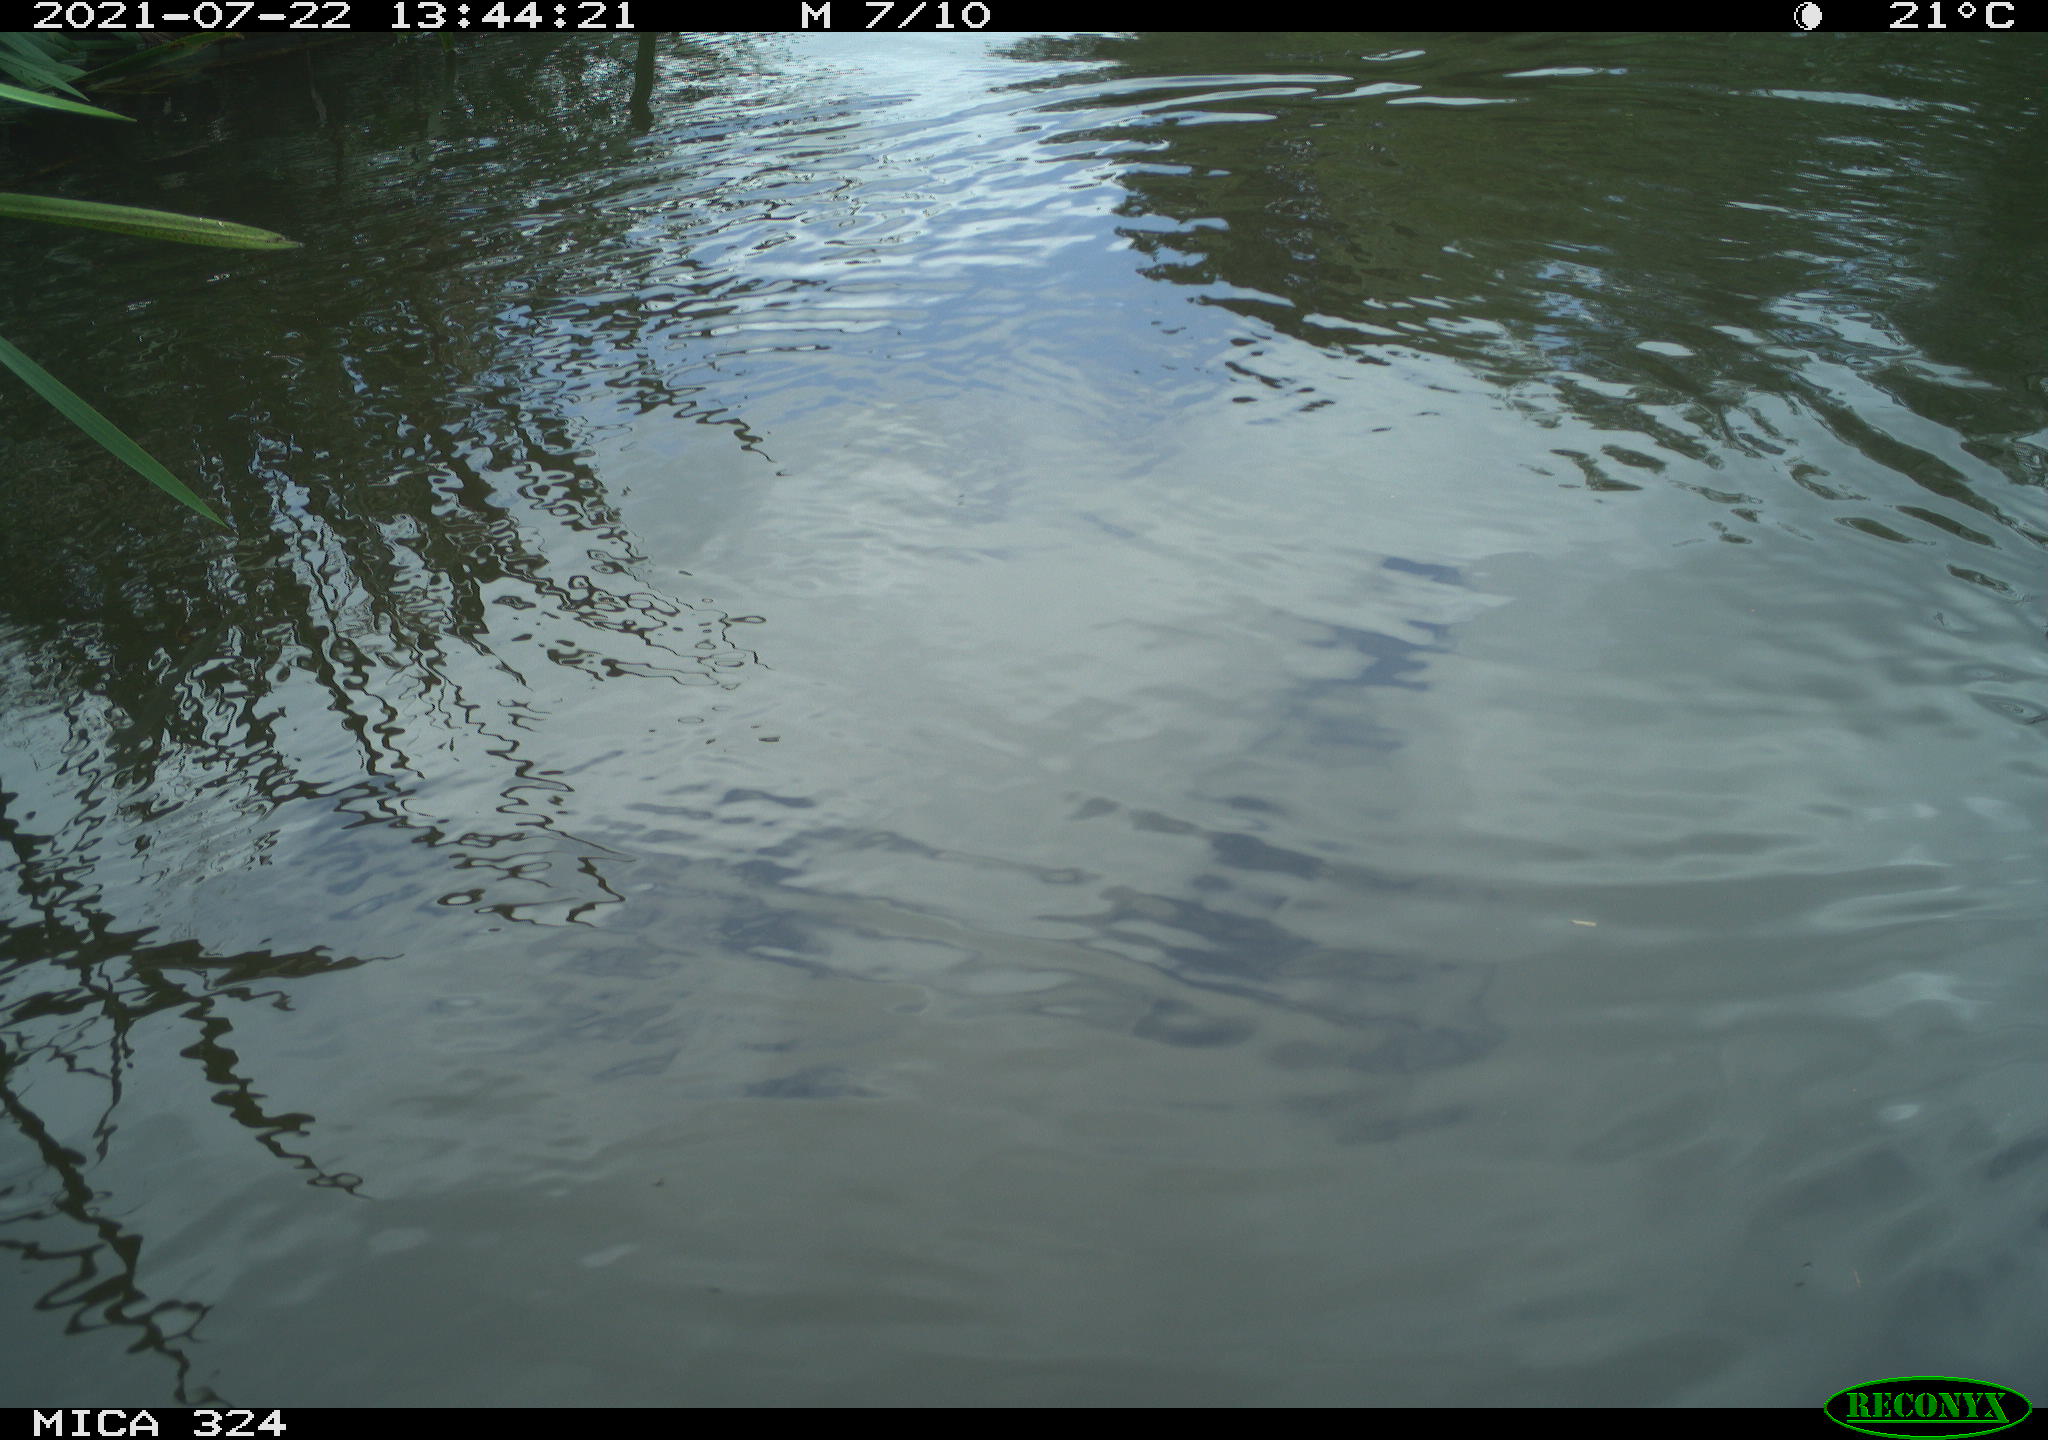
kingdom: Animalia
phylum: Chordata
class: Aves
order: Gruiformes
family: Rallidae
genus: Gallinula
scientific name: Gallinula chloropus
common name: Common moorhen
